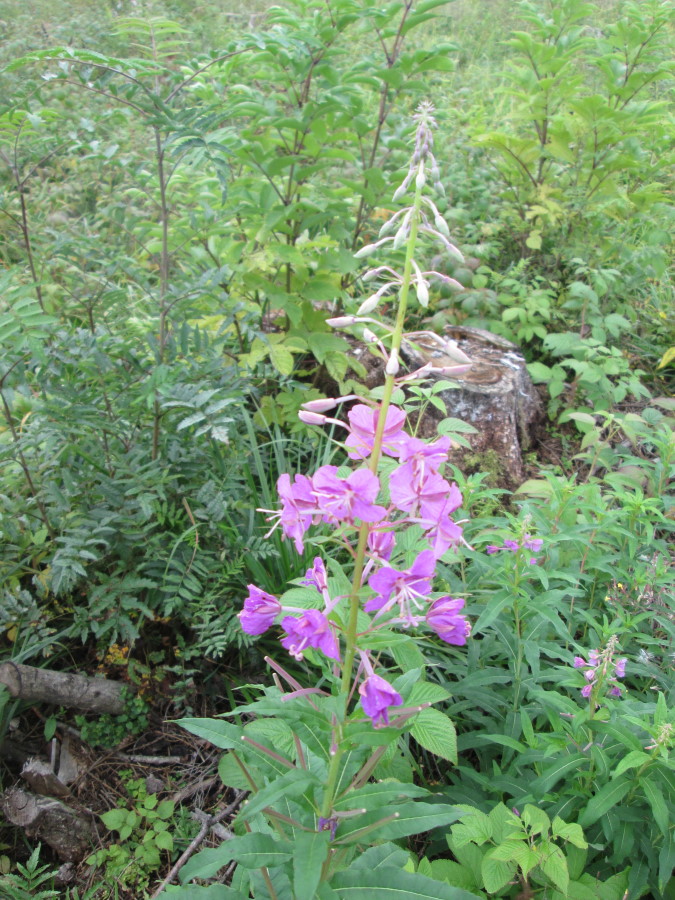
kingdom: Plantae
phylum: Tracheophyta
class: Magnoliopsida
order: Myrtales
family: Onagraceae
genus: Chamaenerion
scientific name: Chamaenerion angustifolium
